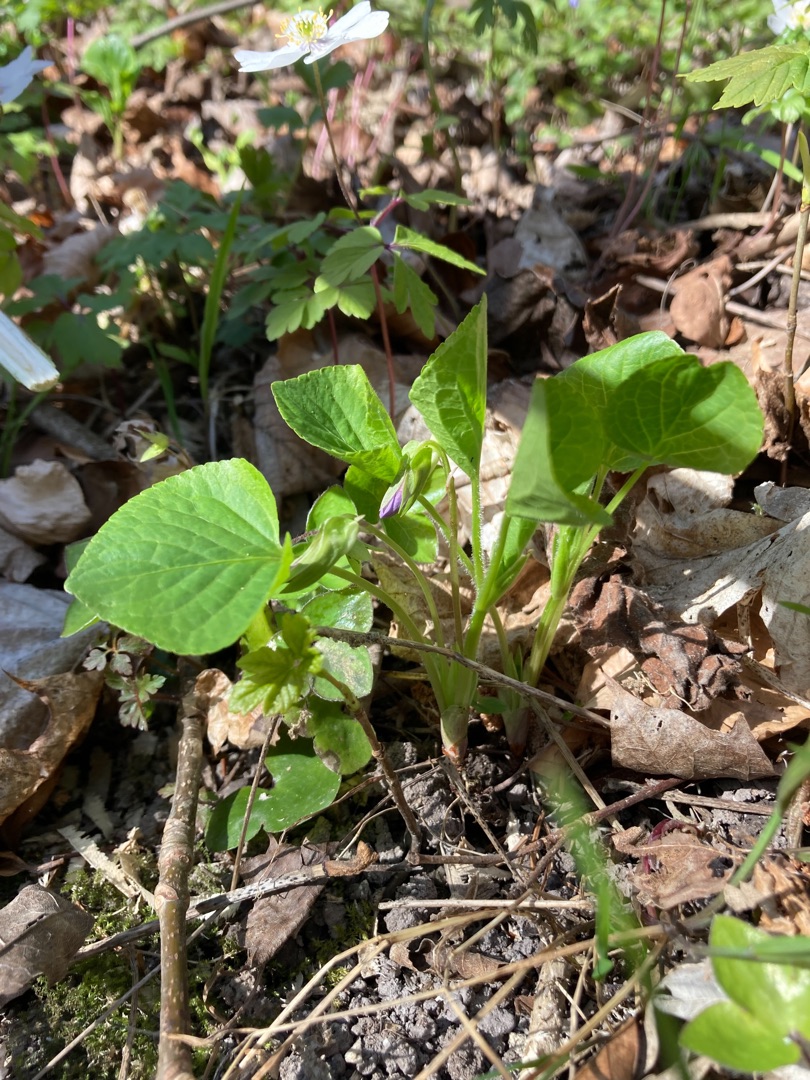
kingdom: Plantae
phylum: Tracheophyta
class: Magnoliopsida
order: Malpighiales
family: Violaceae
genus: Viola
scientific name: Viola mirabilis
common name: Forskelligblomstret viol
